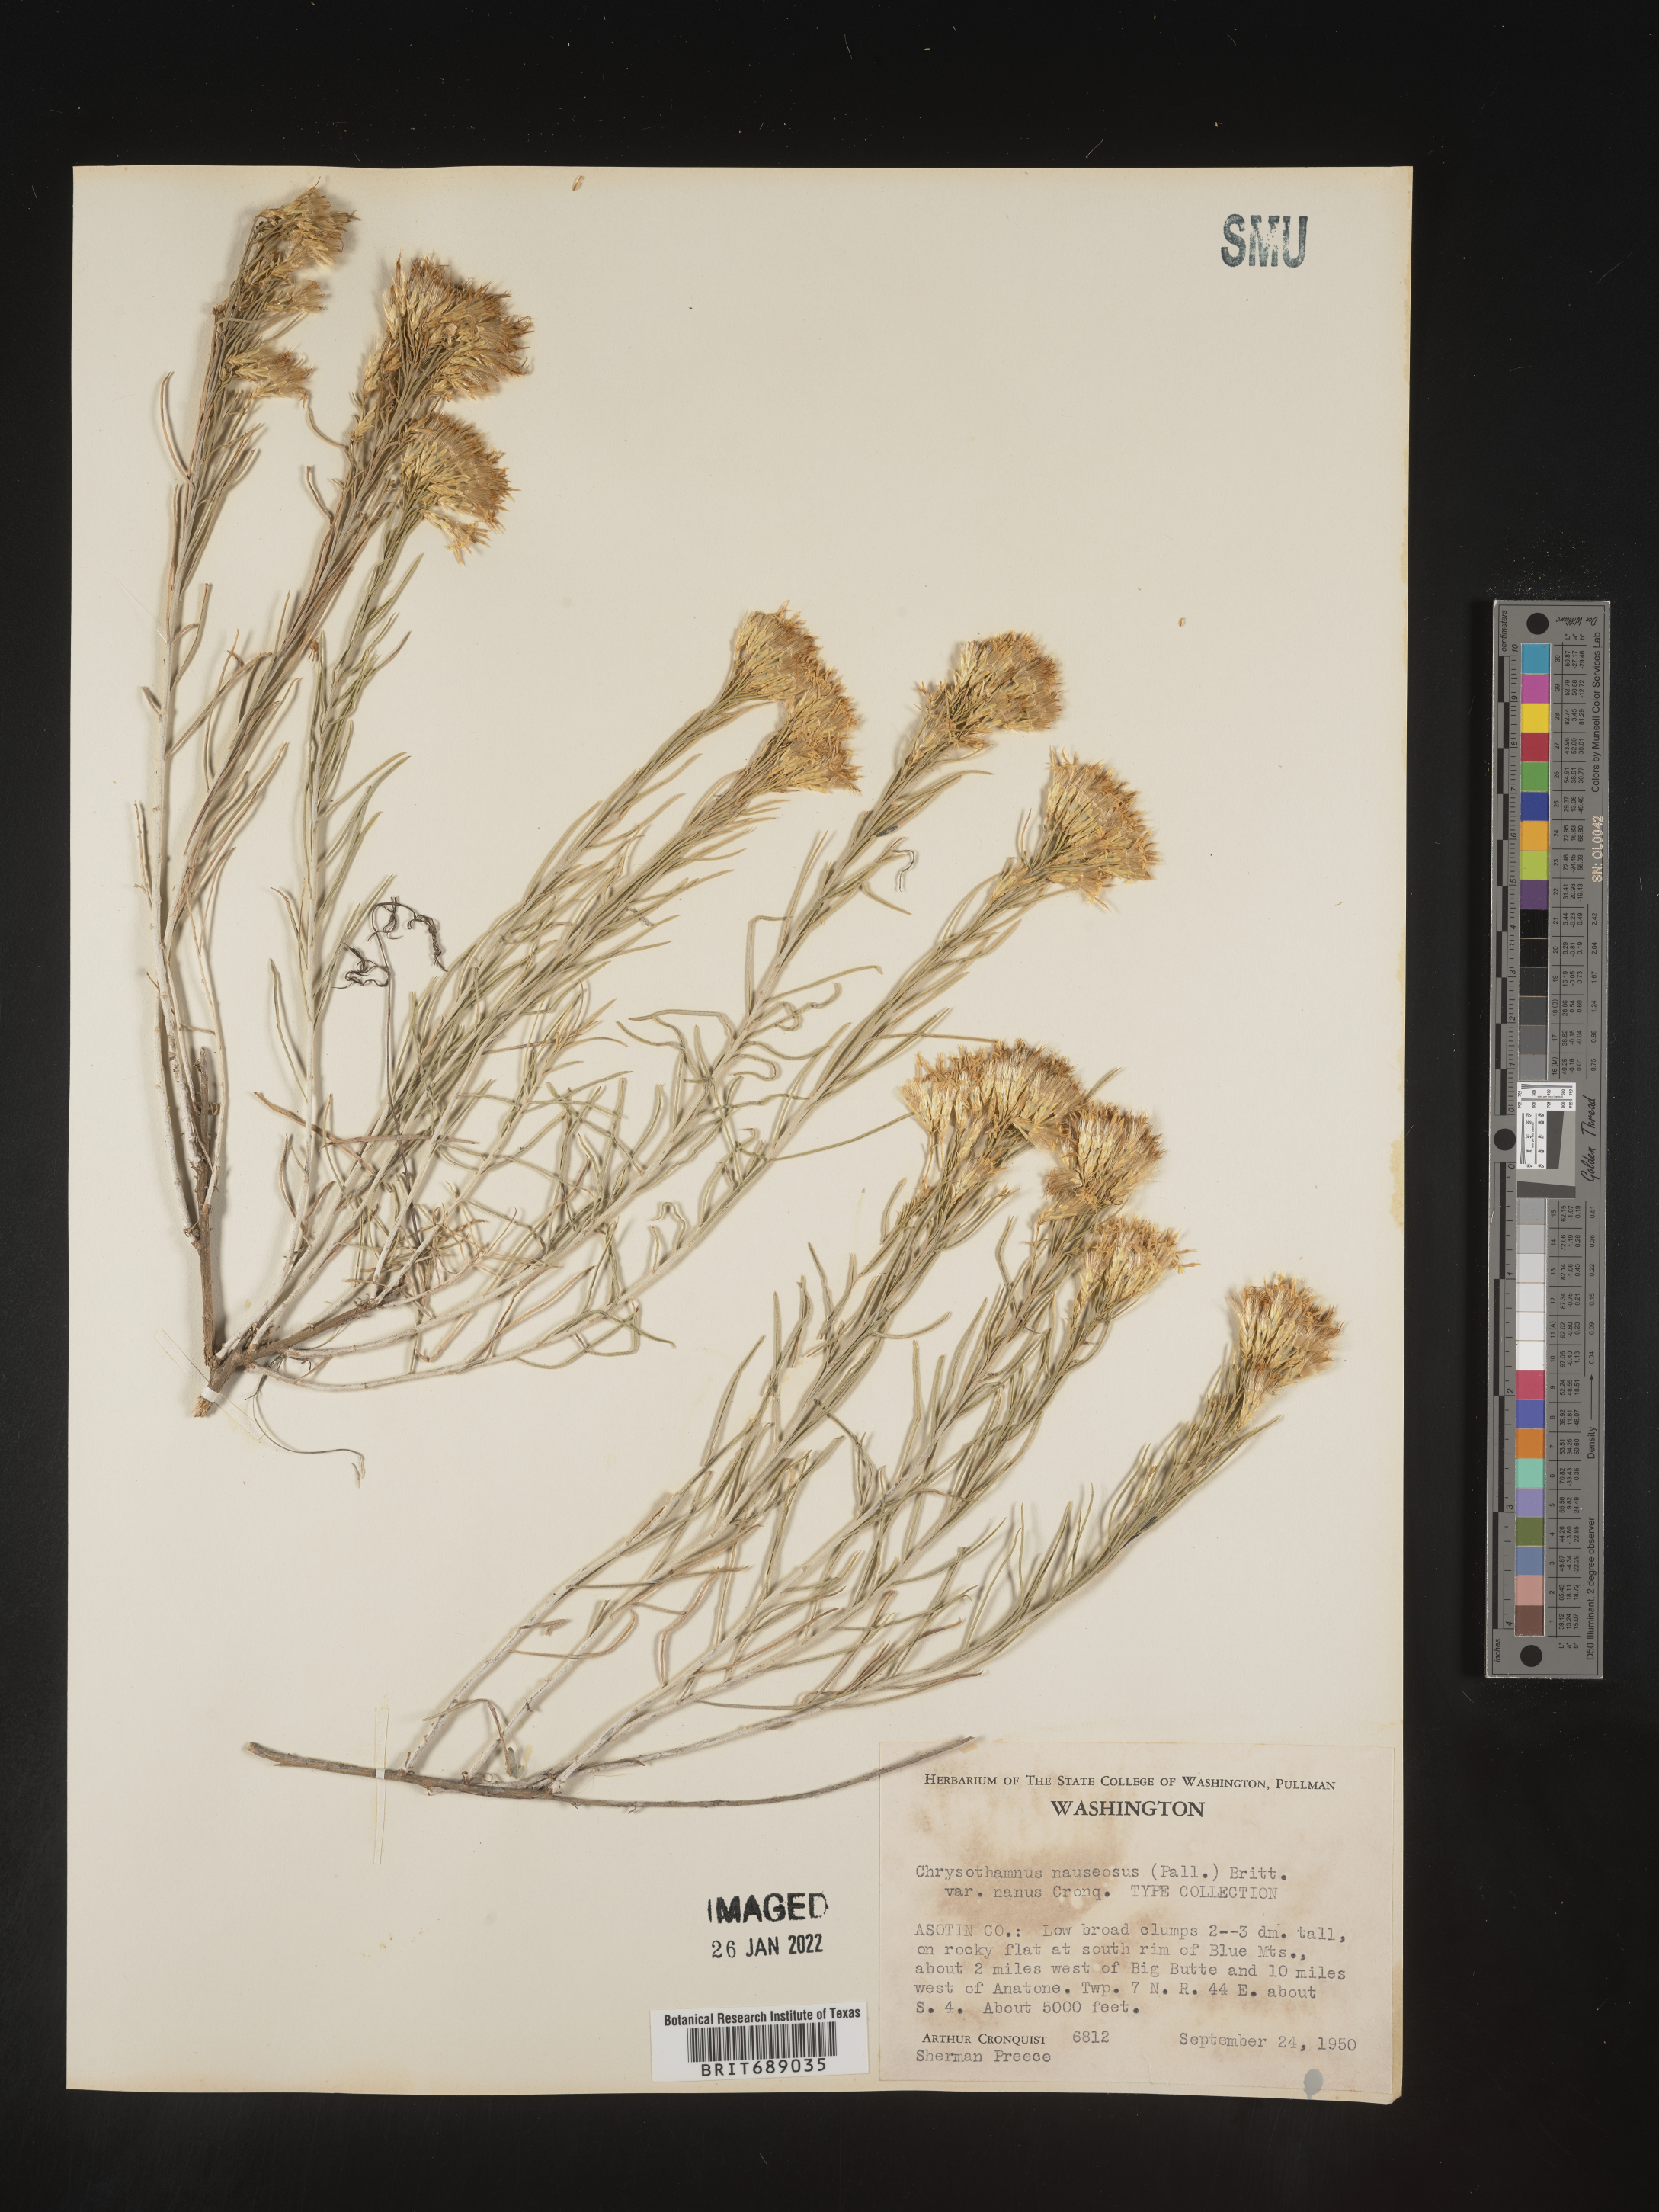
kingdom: Plantae
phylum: Tracheophyta
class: Magnoliopsida
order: Asterales
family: Asteraceae
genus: Ericameria
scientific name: Ericameria nauseosa
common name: Rubber rabbitbrush
